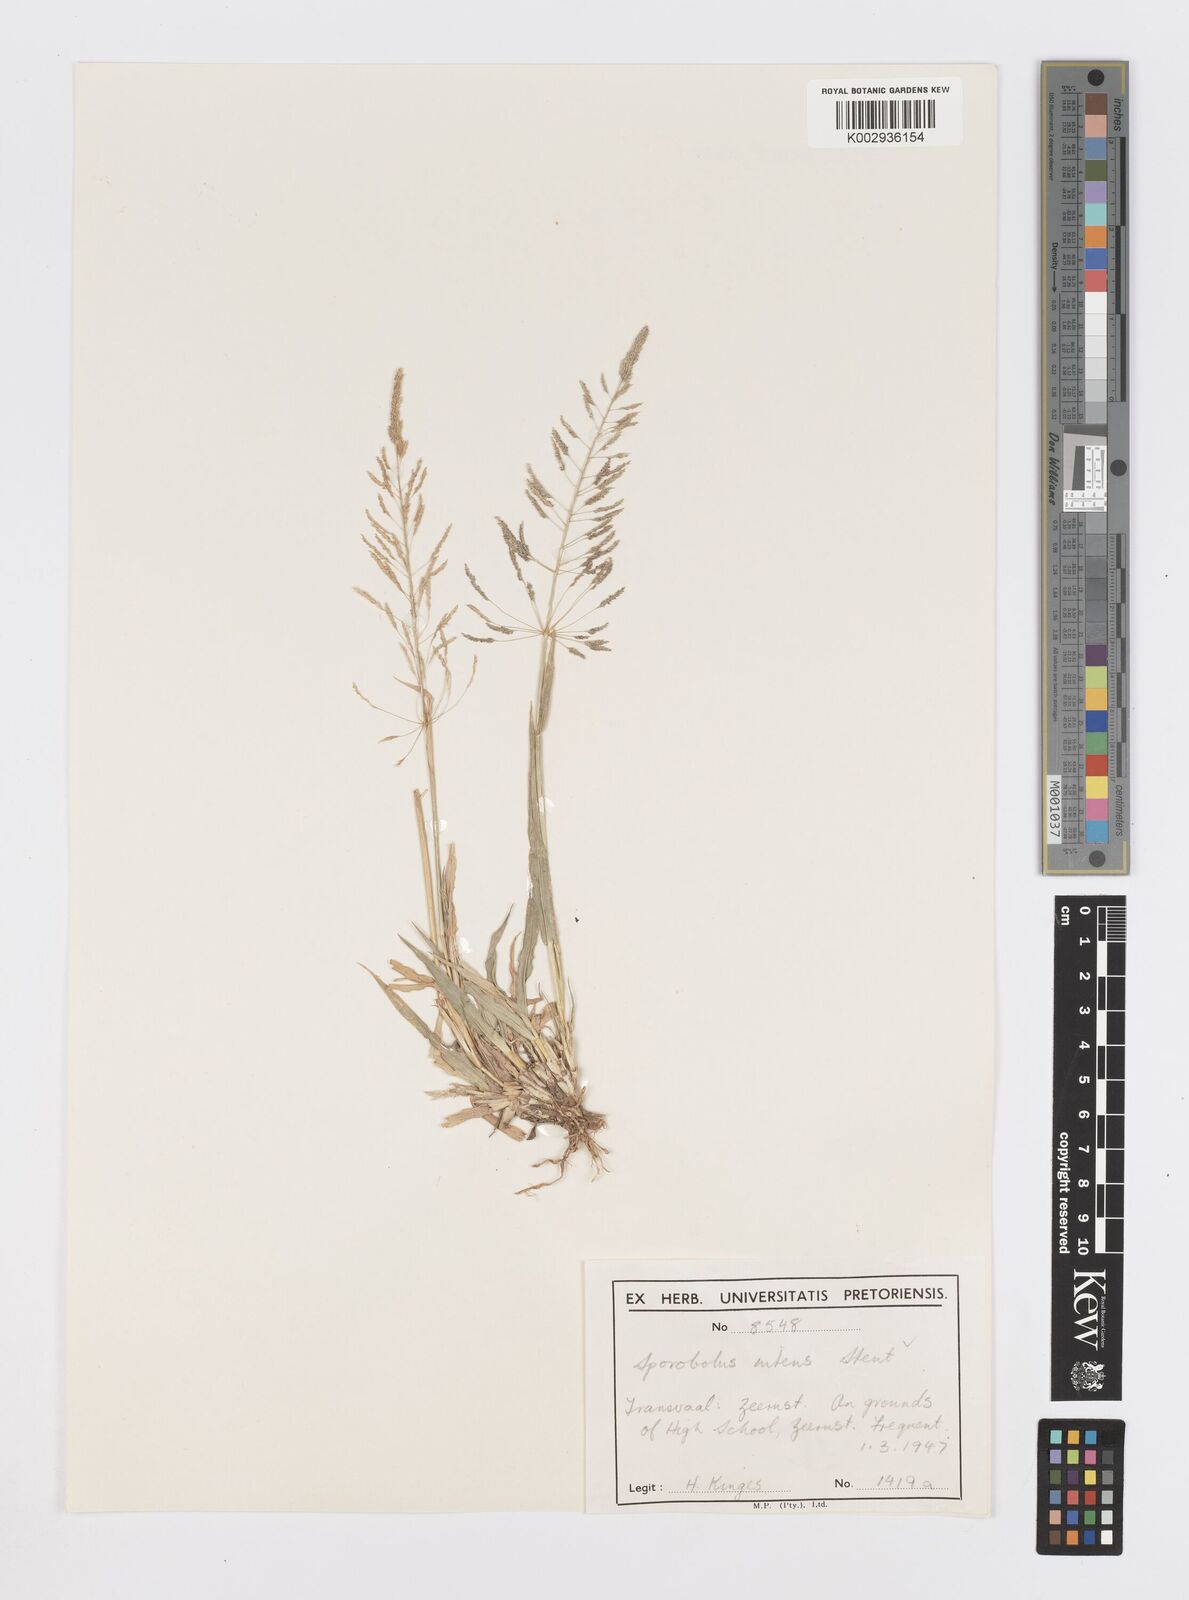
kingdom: Plantae
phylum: Tracheophyta
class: Liliopsida
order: Poales
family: Poaceae
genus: Sporobolus
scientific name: Sporobolus nitens
